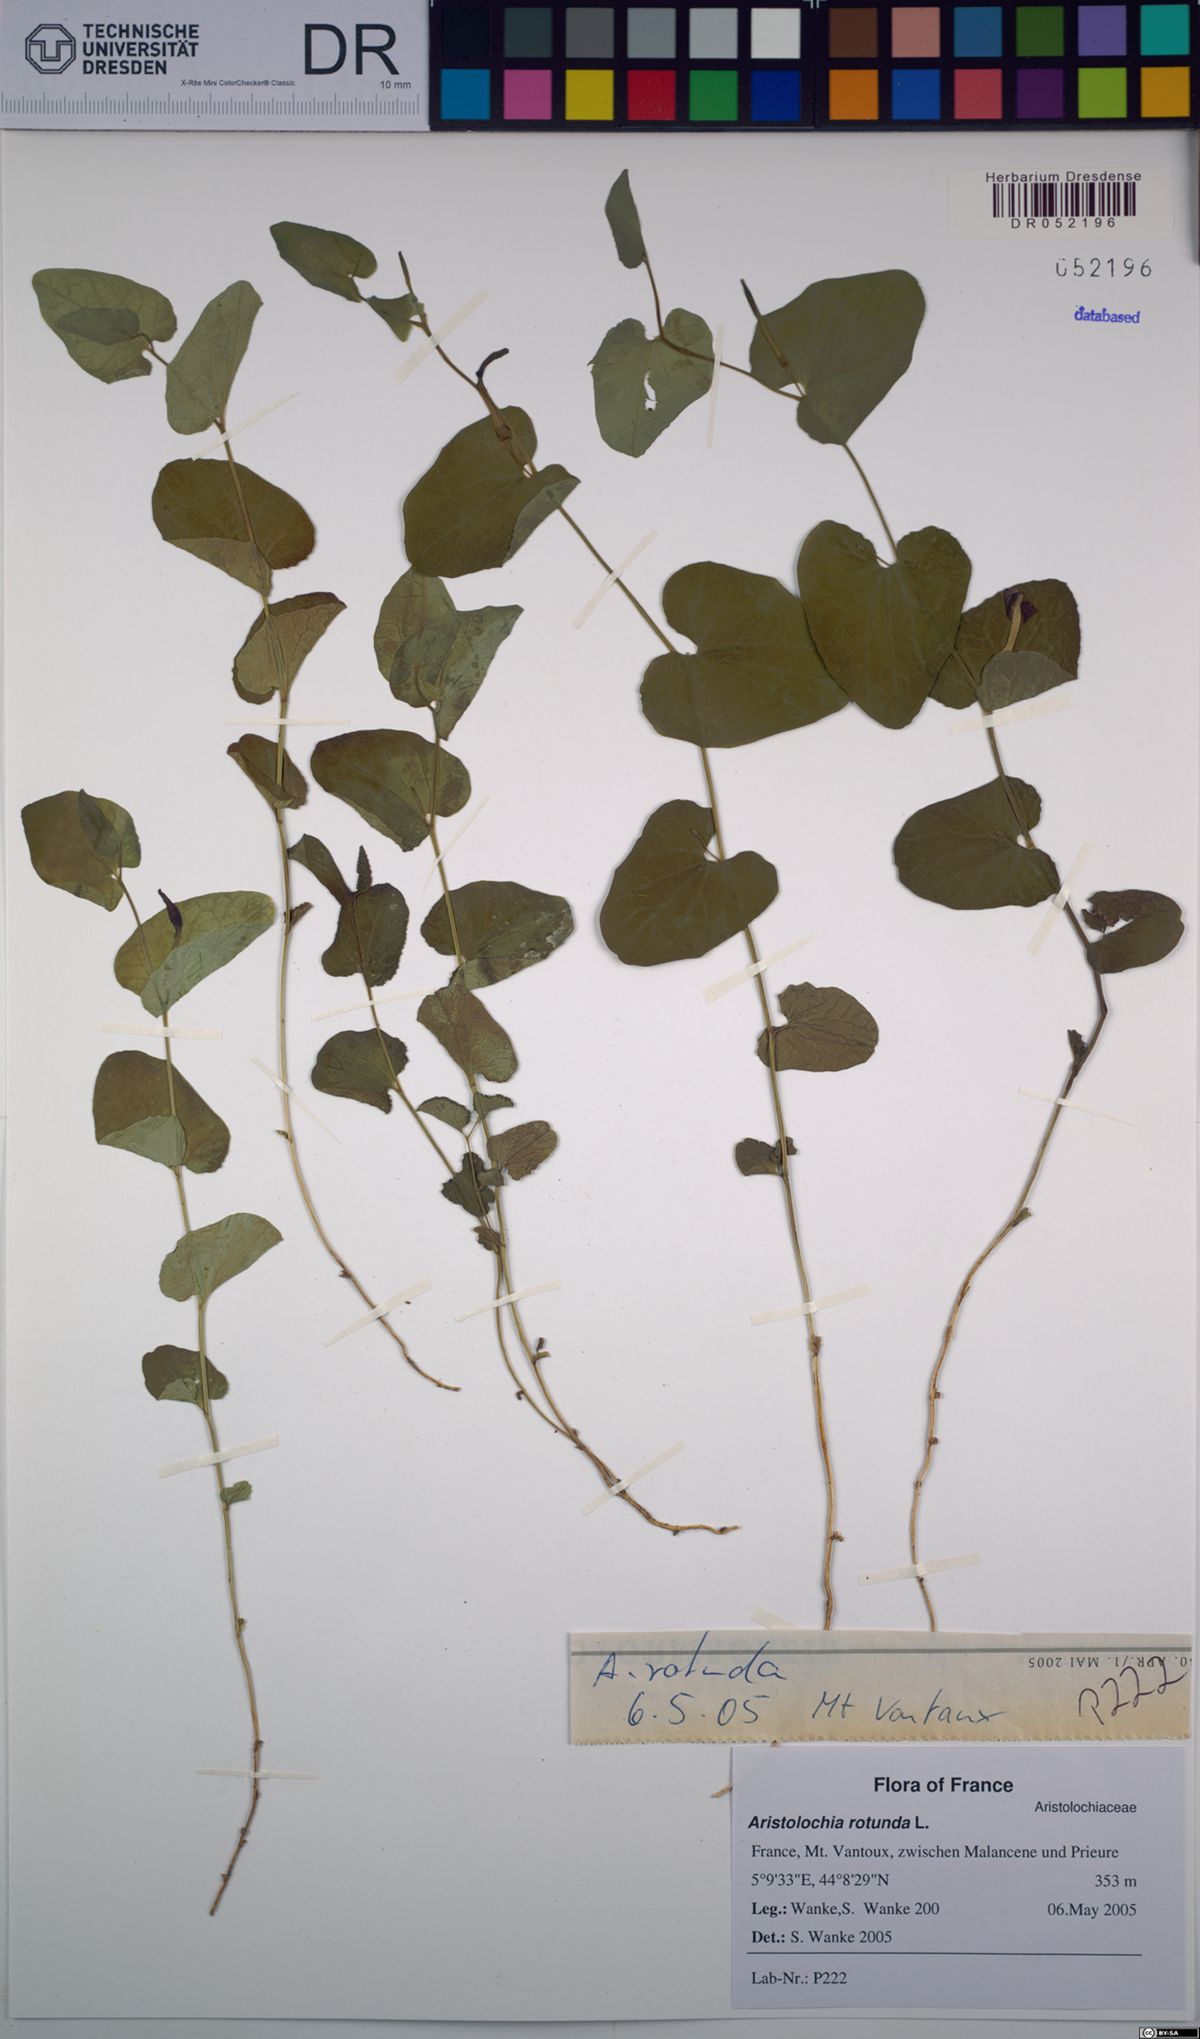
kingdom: Plantae
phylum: Tracheophyta
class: Magnoliopsida
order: Piperales
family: Aristolochiaceae
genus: Aristolochia
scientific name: Aristolochia rotunda
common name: Smearwort
